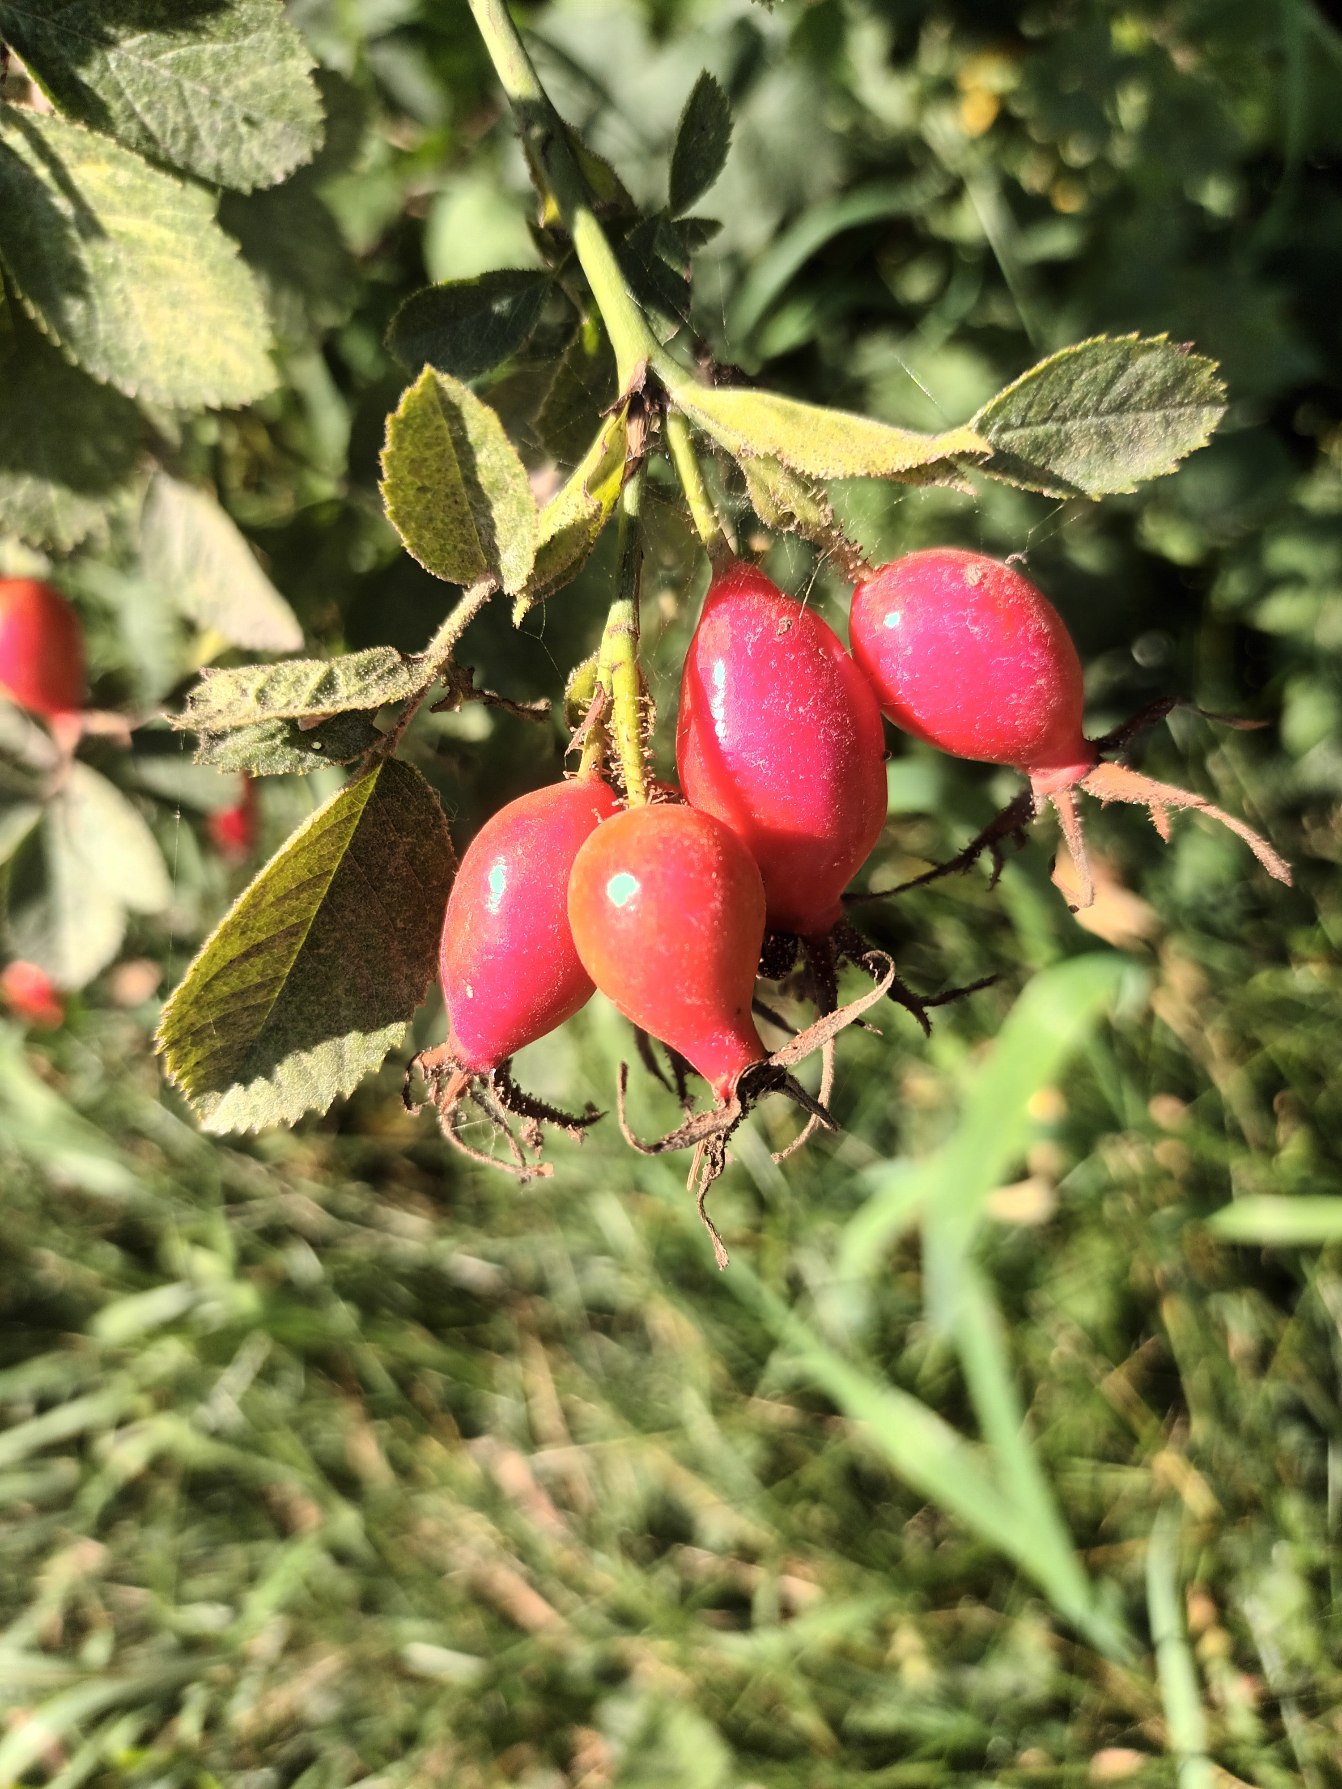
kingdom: Plantae
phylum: Tracheophyta
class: Magnoliopsida
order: Rosales
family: Rosaceae
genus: Rosa
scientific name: Rosa rubiginosa
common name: Æble-rose
